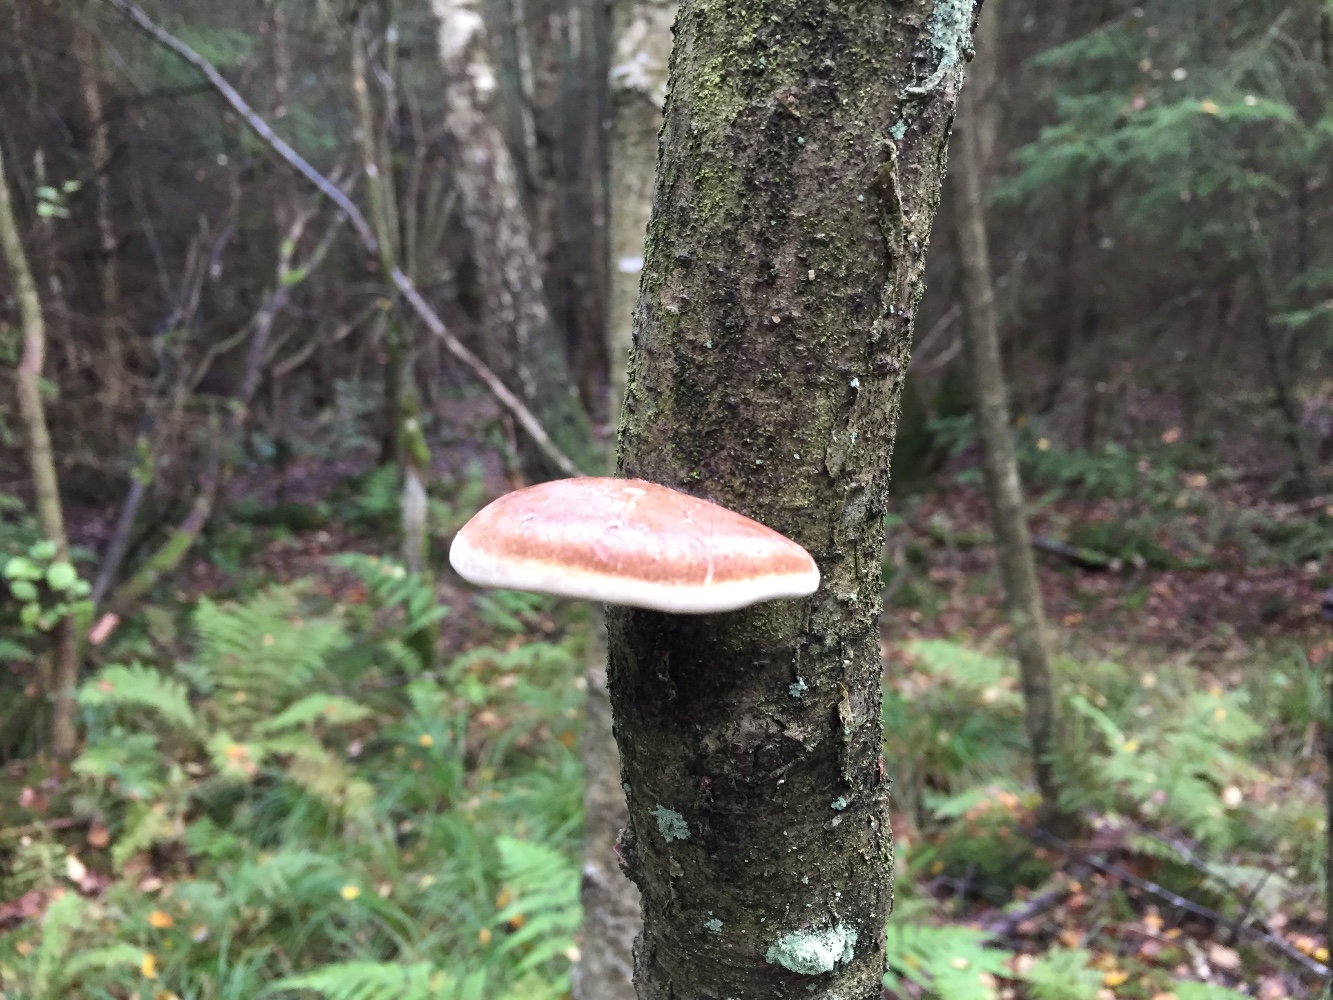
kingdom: Fungi
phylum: Basidiomycota
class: Agaricomycetes
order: Polyporales
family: Fomitopsidaceae
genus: Fomitopsis
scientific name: Fomitopsis betulina
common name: birkeporesvamp
